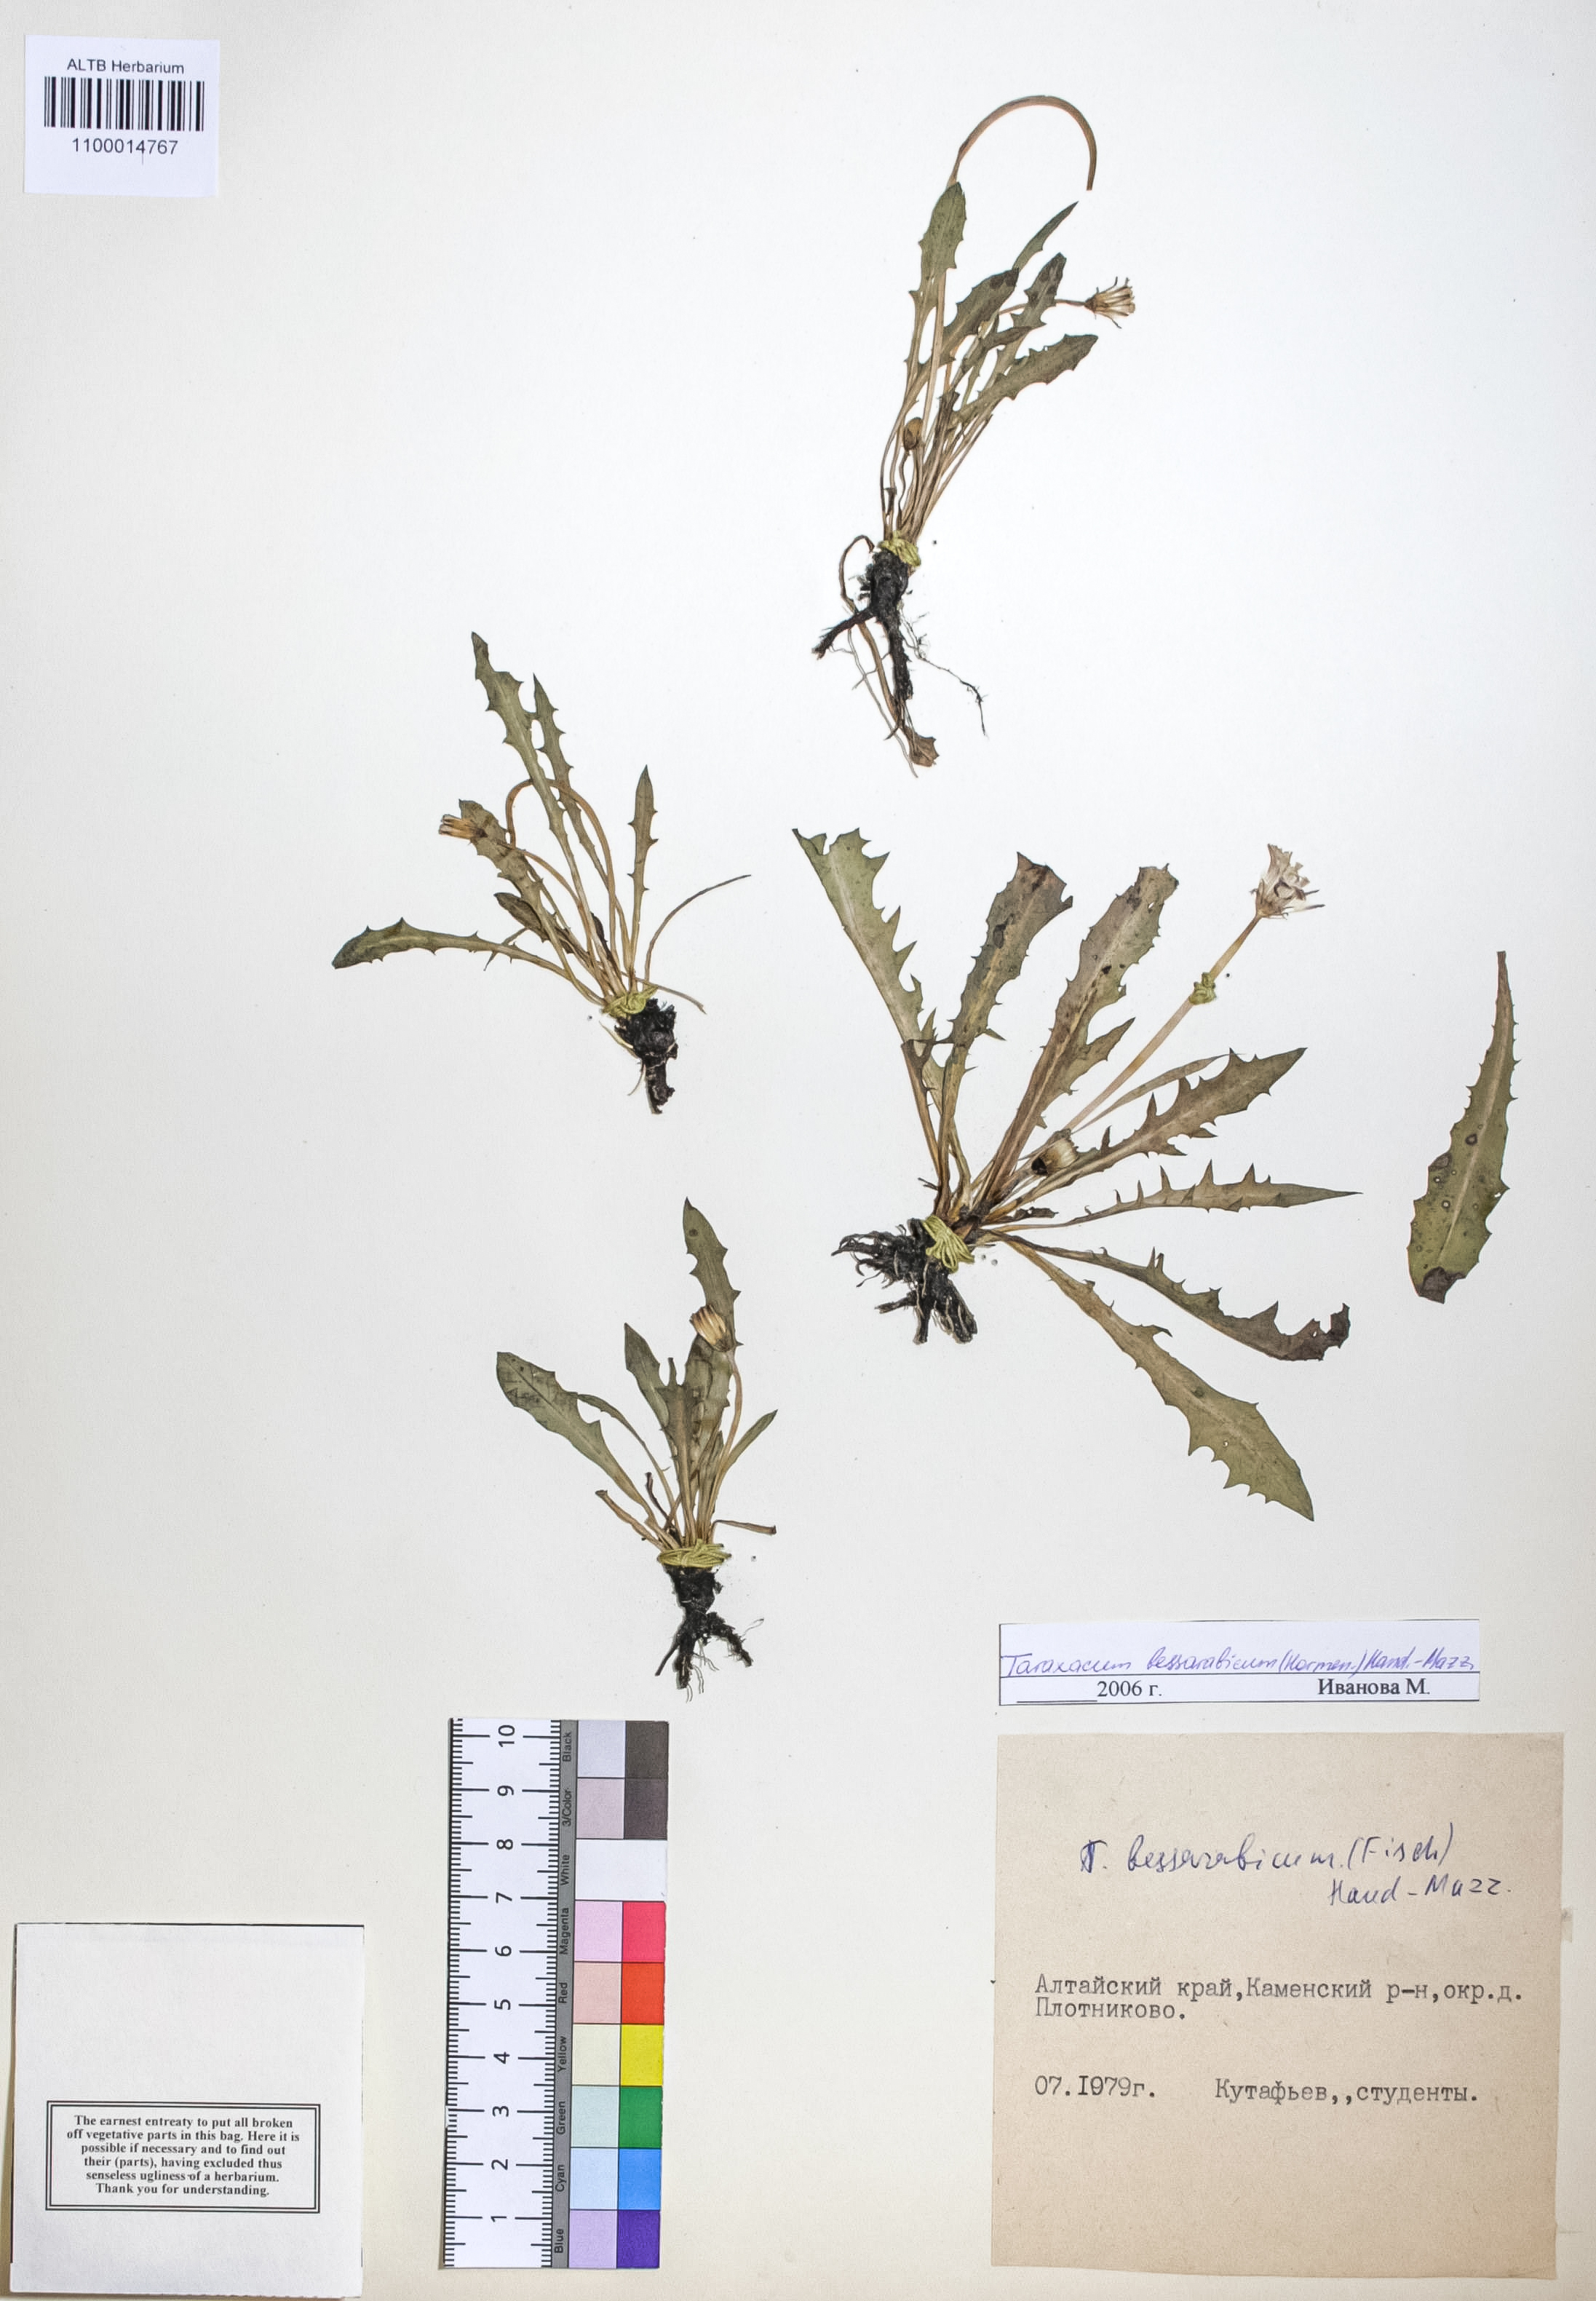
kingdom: Plantae
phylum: Tracheophyta
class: Magnoliopsida
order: Asterales
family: Asteraceae
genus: Taraxacum
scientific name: Taraxacum bessarabicum
